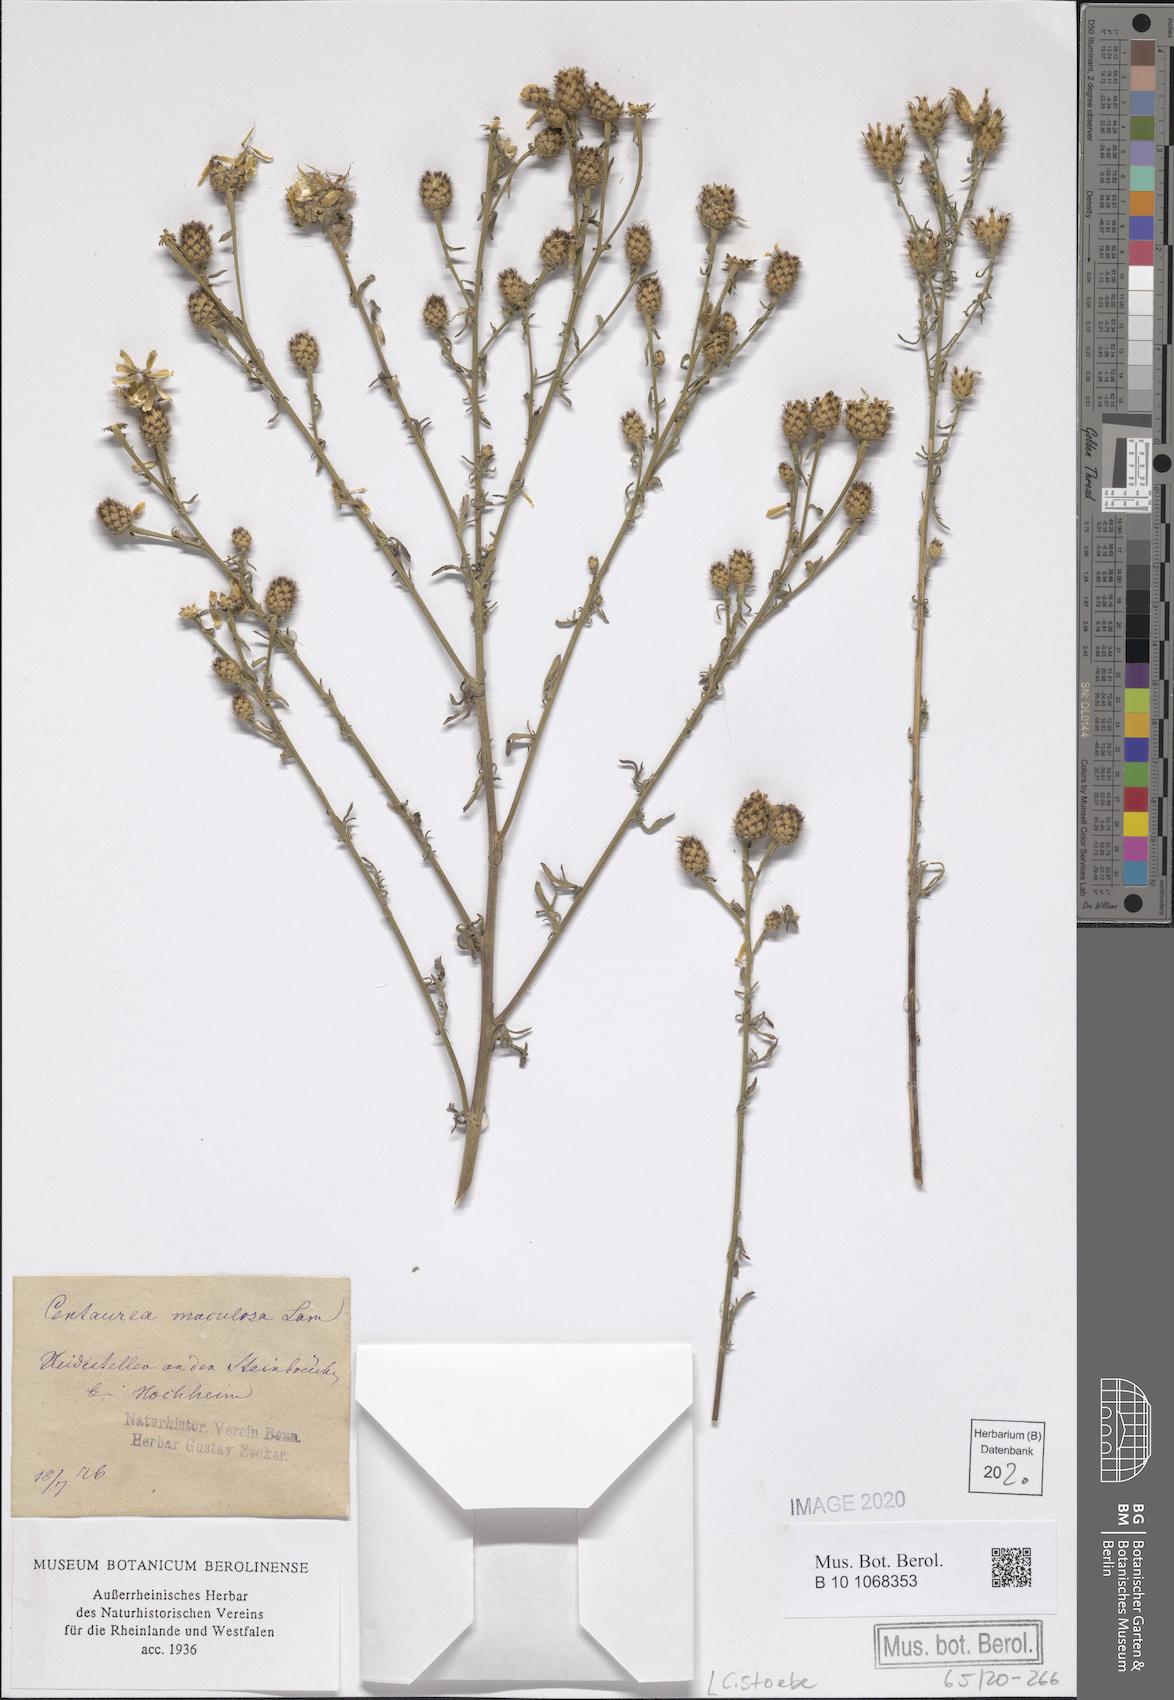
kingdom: Plantae
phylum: Tracheophyta
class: Magnoliopsida
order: Asterales
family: Asteraceae
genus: Centaurea
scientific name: Centaurea stoebe
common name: Spotted knapweed
